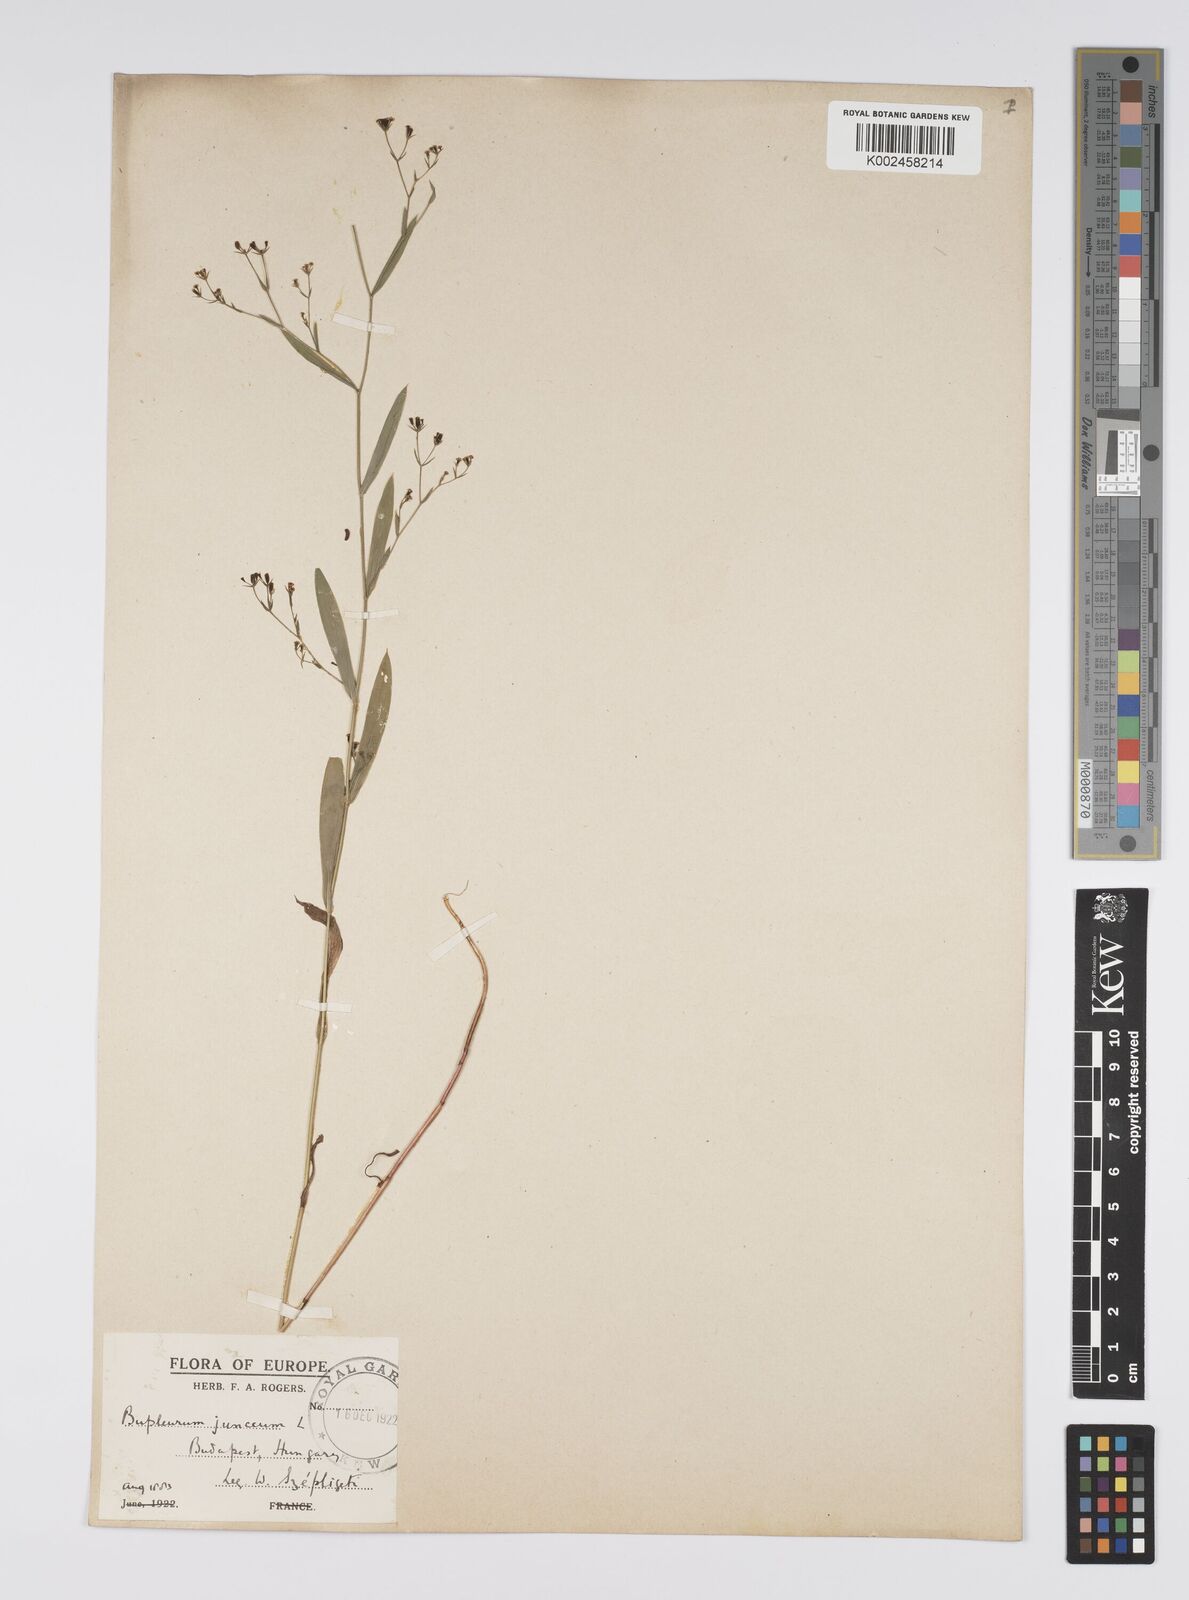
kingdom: Plantae
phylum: Tracheophyta
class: Magnoliopsida
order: Apiales
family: Apiaceae
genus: Bupleurum
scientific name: Bupleurum praealtum
